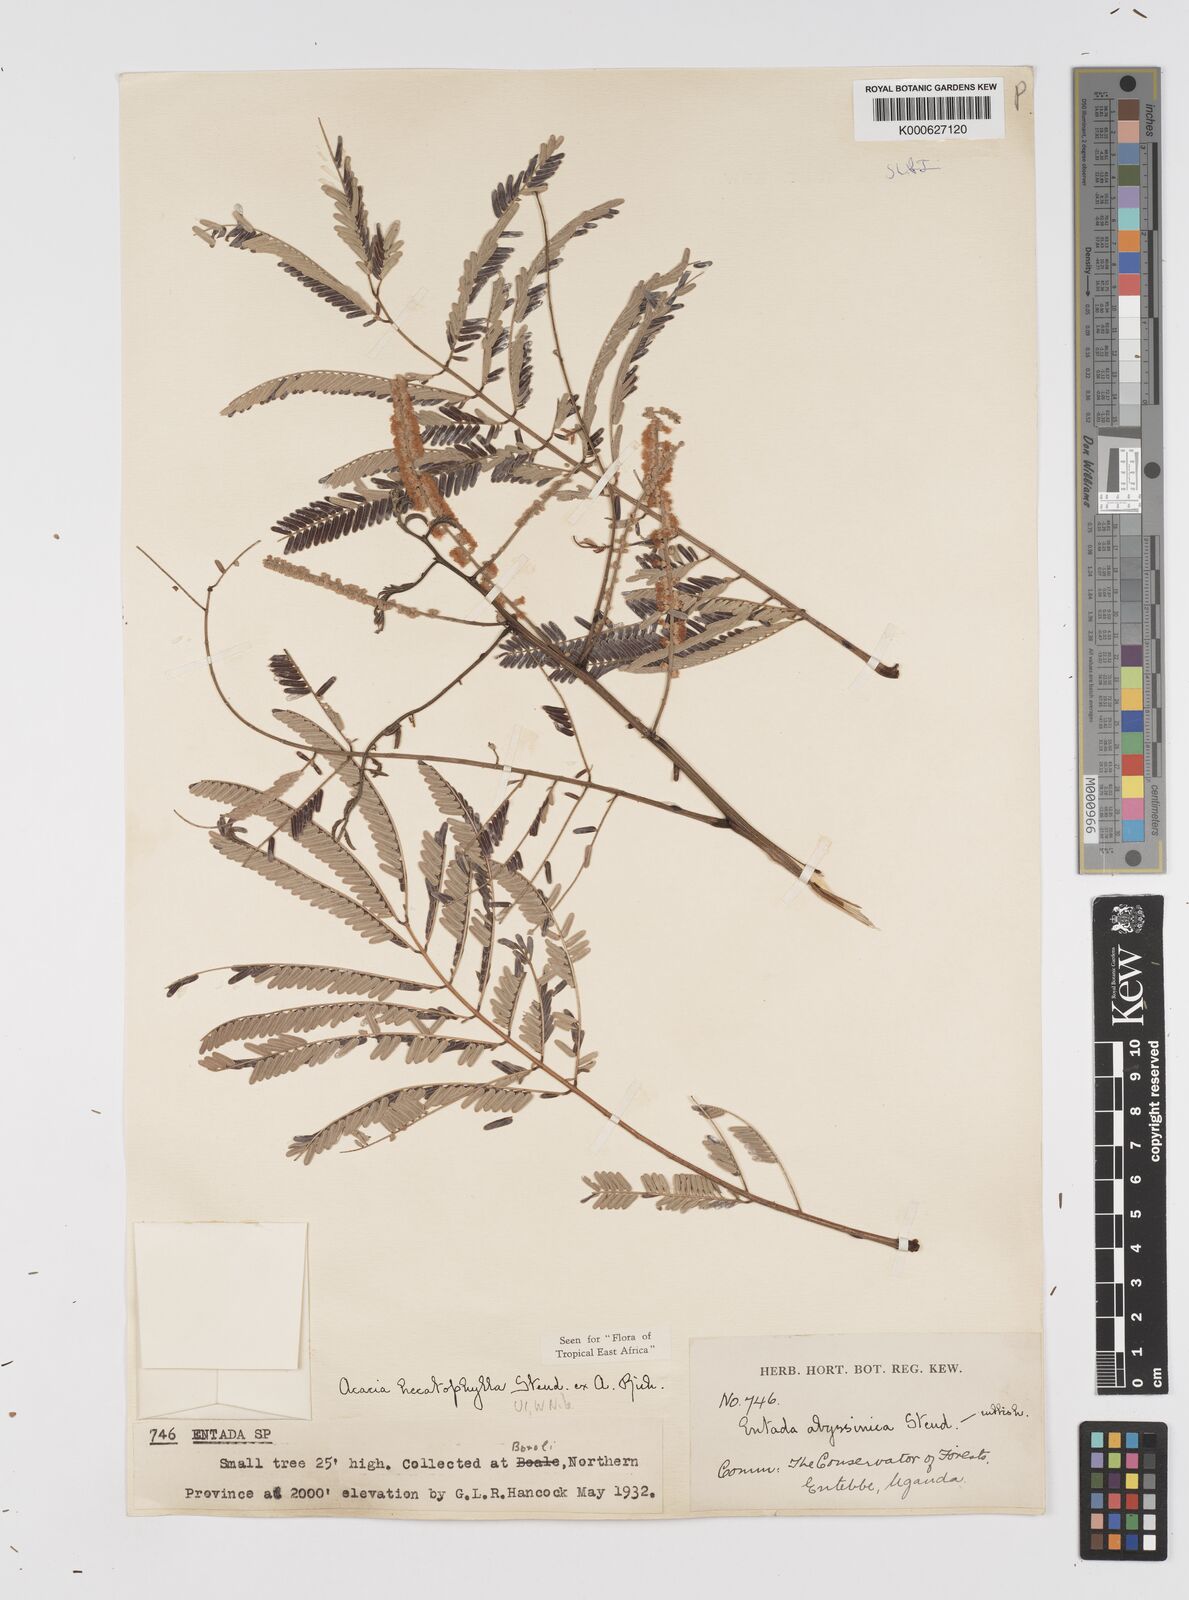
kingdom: Plantae
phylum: Tracheophyta
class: Magnoliopsida
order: Fabales
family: Fabaceae
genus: Senegalia
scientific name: Senegalia hecatophylla
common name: Long pod
